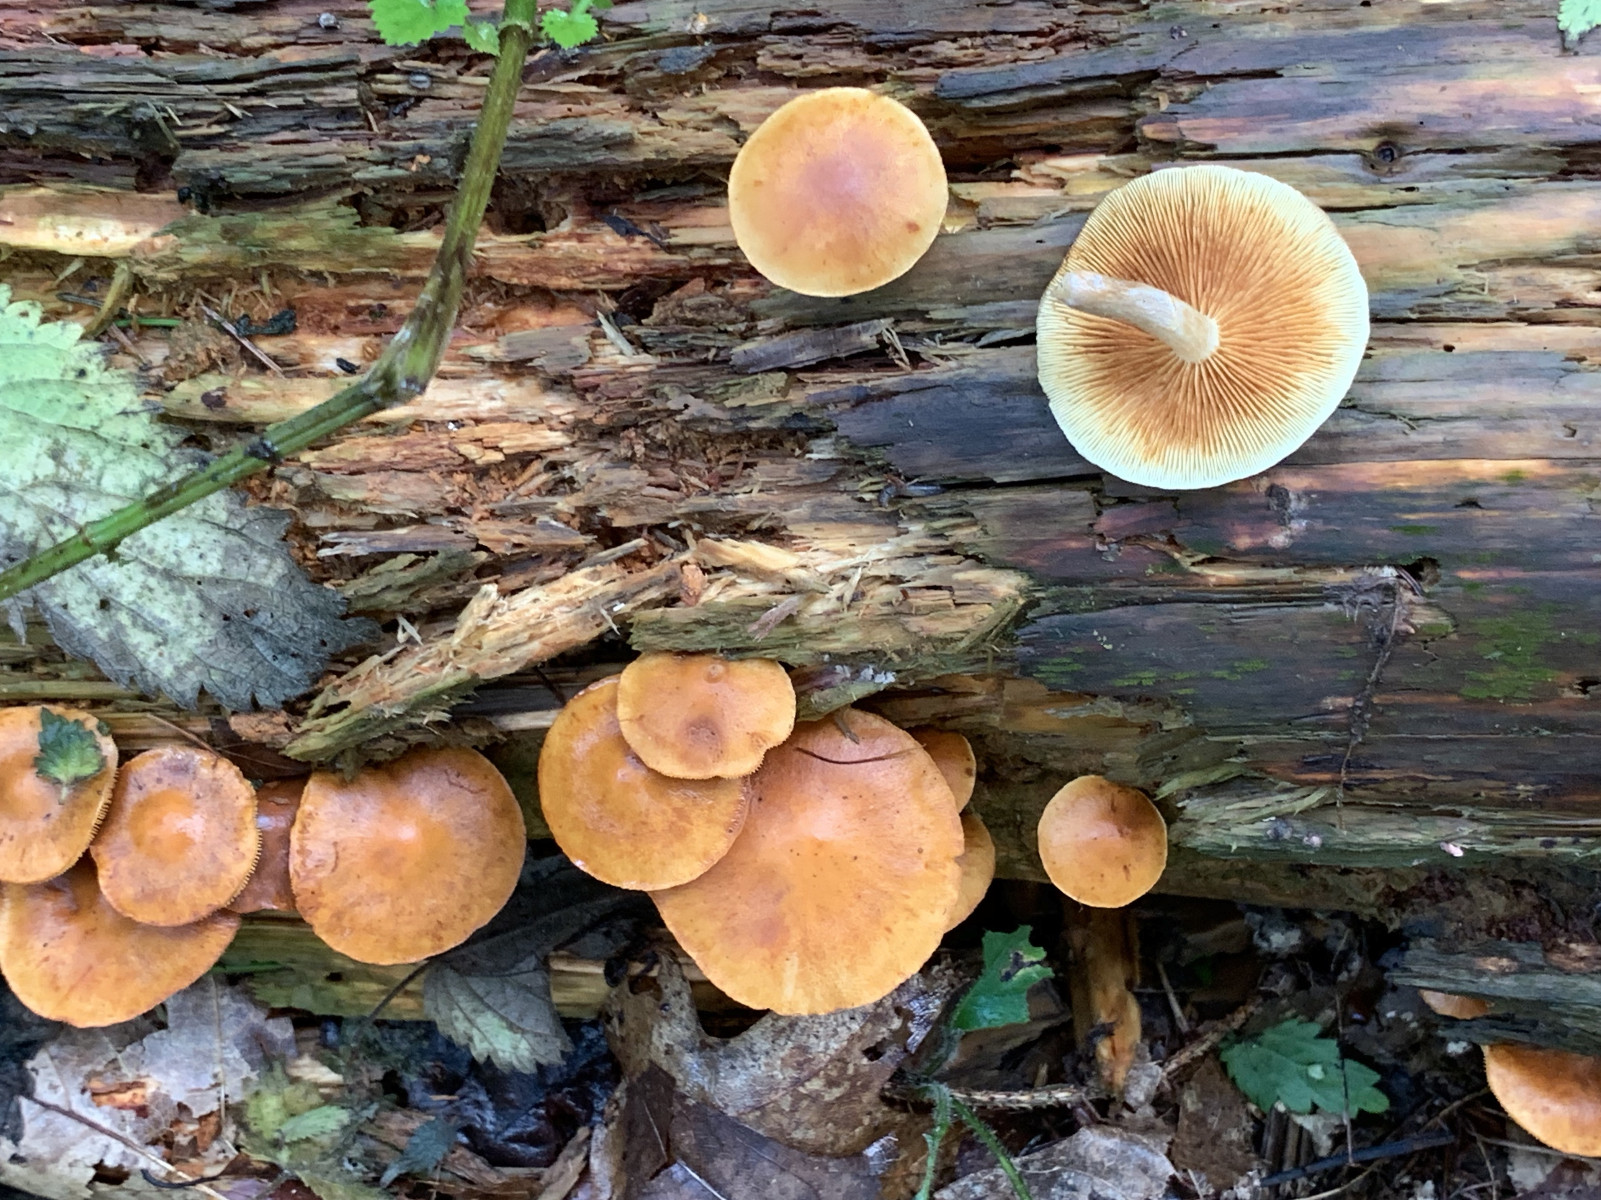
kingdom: Fungi
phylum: Basidiomycota
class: Agaricomycetes
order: Agaricales
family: Hymenogastraceae
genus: Gymnopilus
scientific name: Gymnopilus penetrans
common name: plettet flammehat
